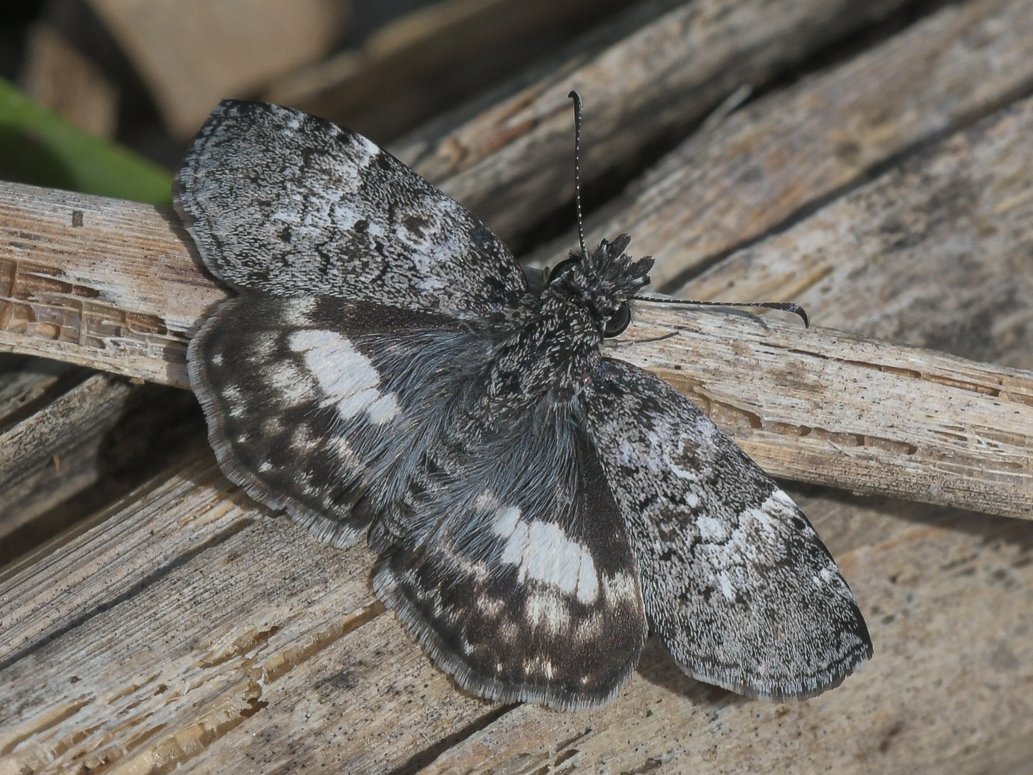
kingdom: Animalia
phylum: Arthropoda
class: Insecta
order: Lepidoptera
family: Hesperiidae
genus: Chiomara
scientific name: Chiomara asychis
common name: White-patched Skipper
